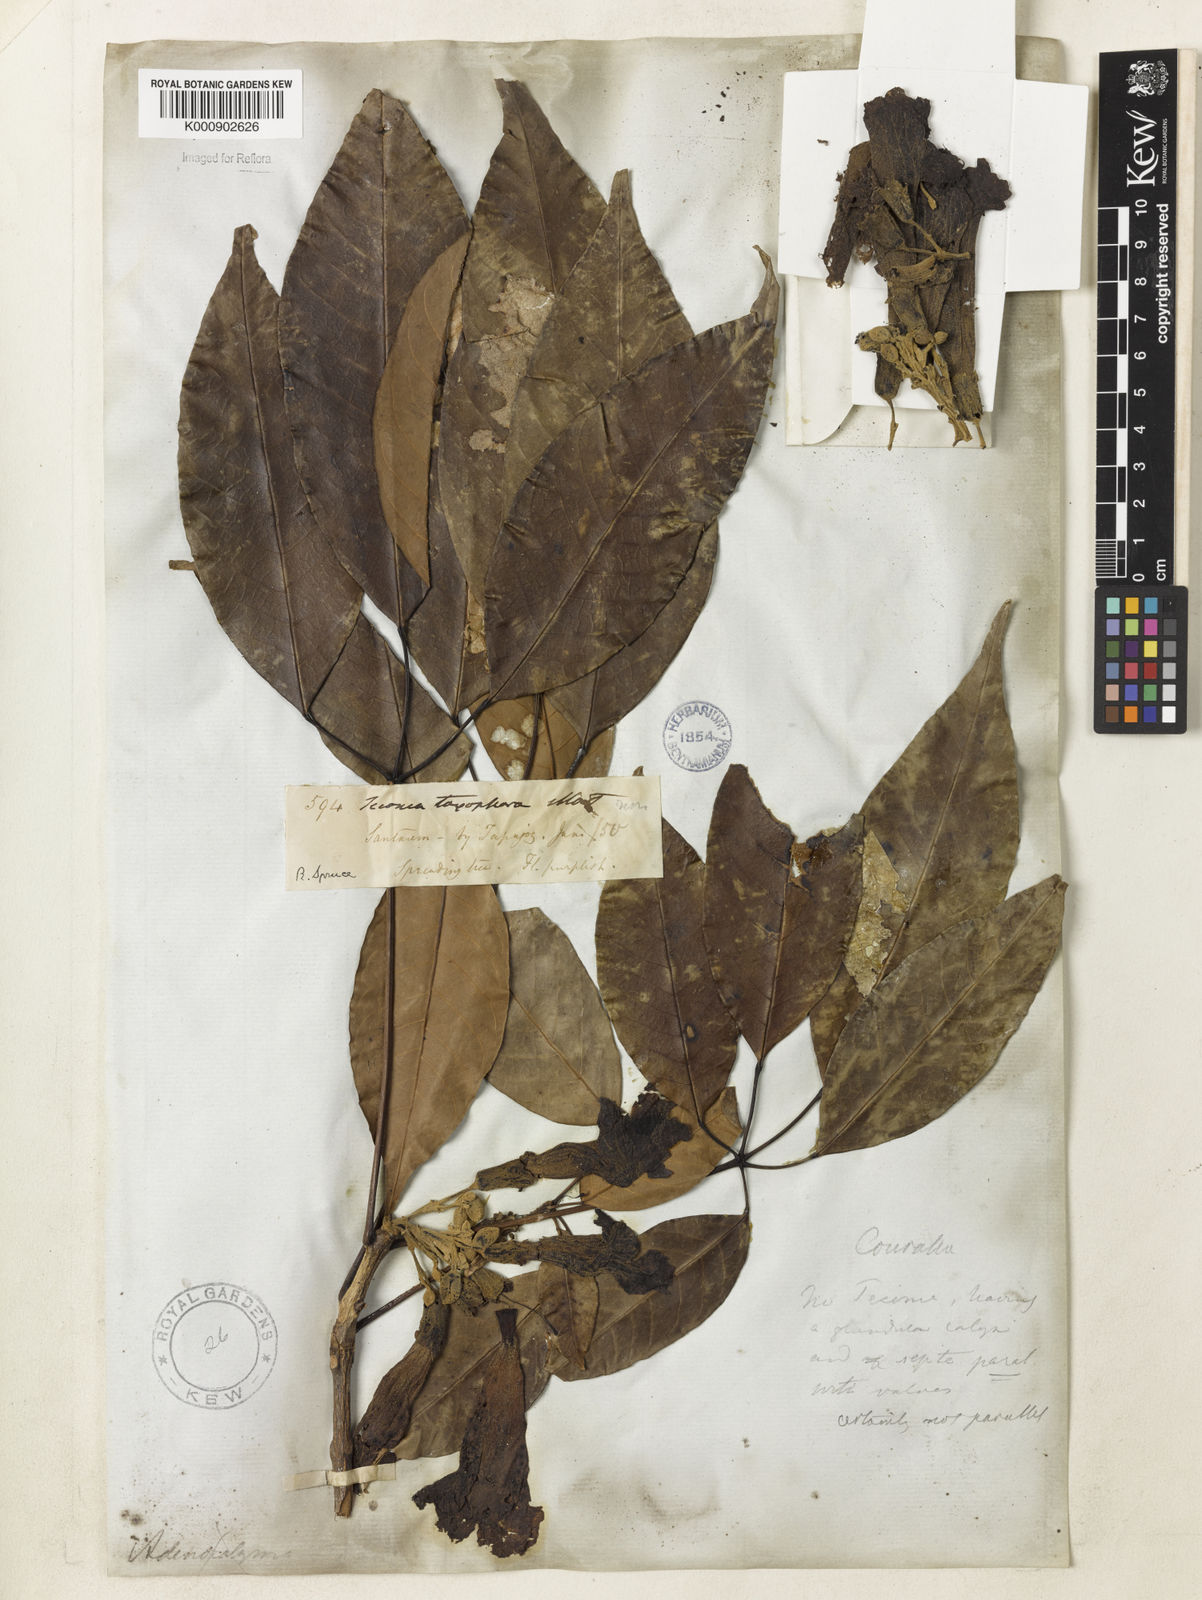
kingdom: Plantae
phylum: Tracheophyta
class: Magnoliopsida
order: Lamiales
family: Bignoniaceae
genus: Handroanthus
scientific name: Handroanthus barbatus
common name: Trumpet trees
